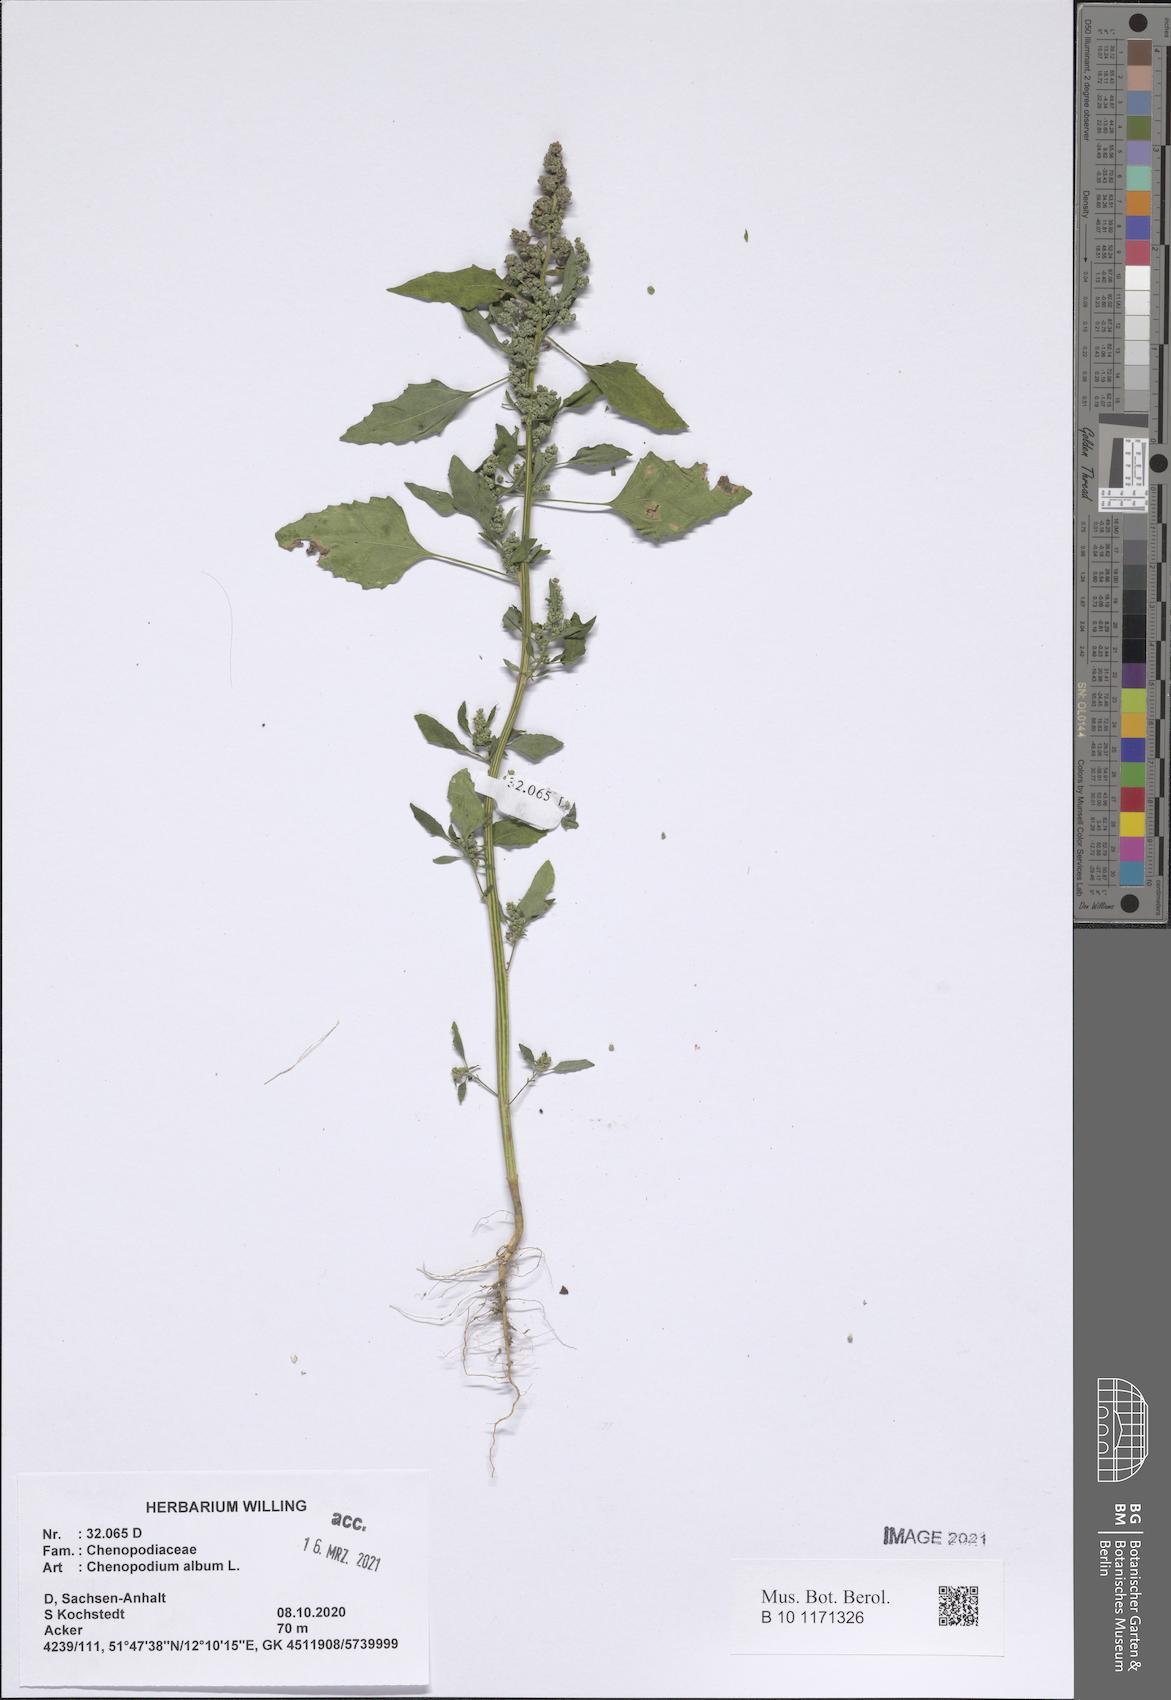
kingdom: Plantae
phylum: Tracheophyta
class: Magnoliopsida
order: Caryophyllales
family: Amaranthaceae
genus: Chenopodium
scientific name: Chenopodium album
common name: Fat-hen
